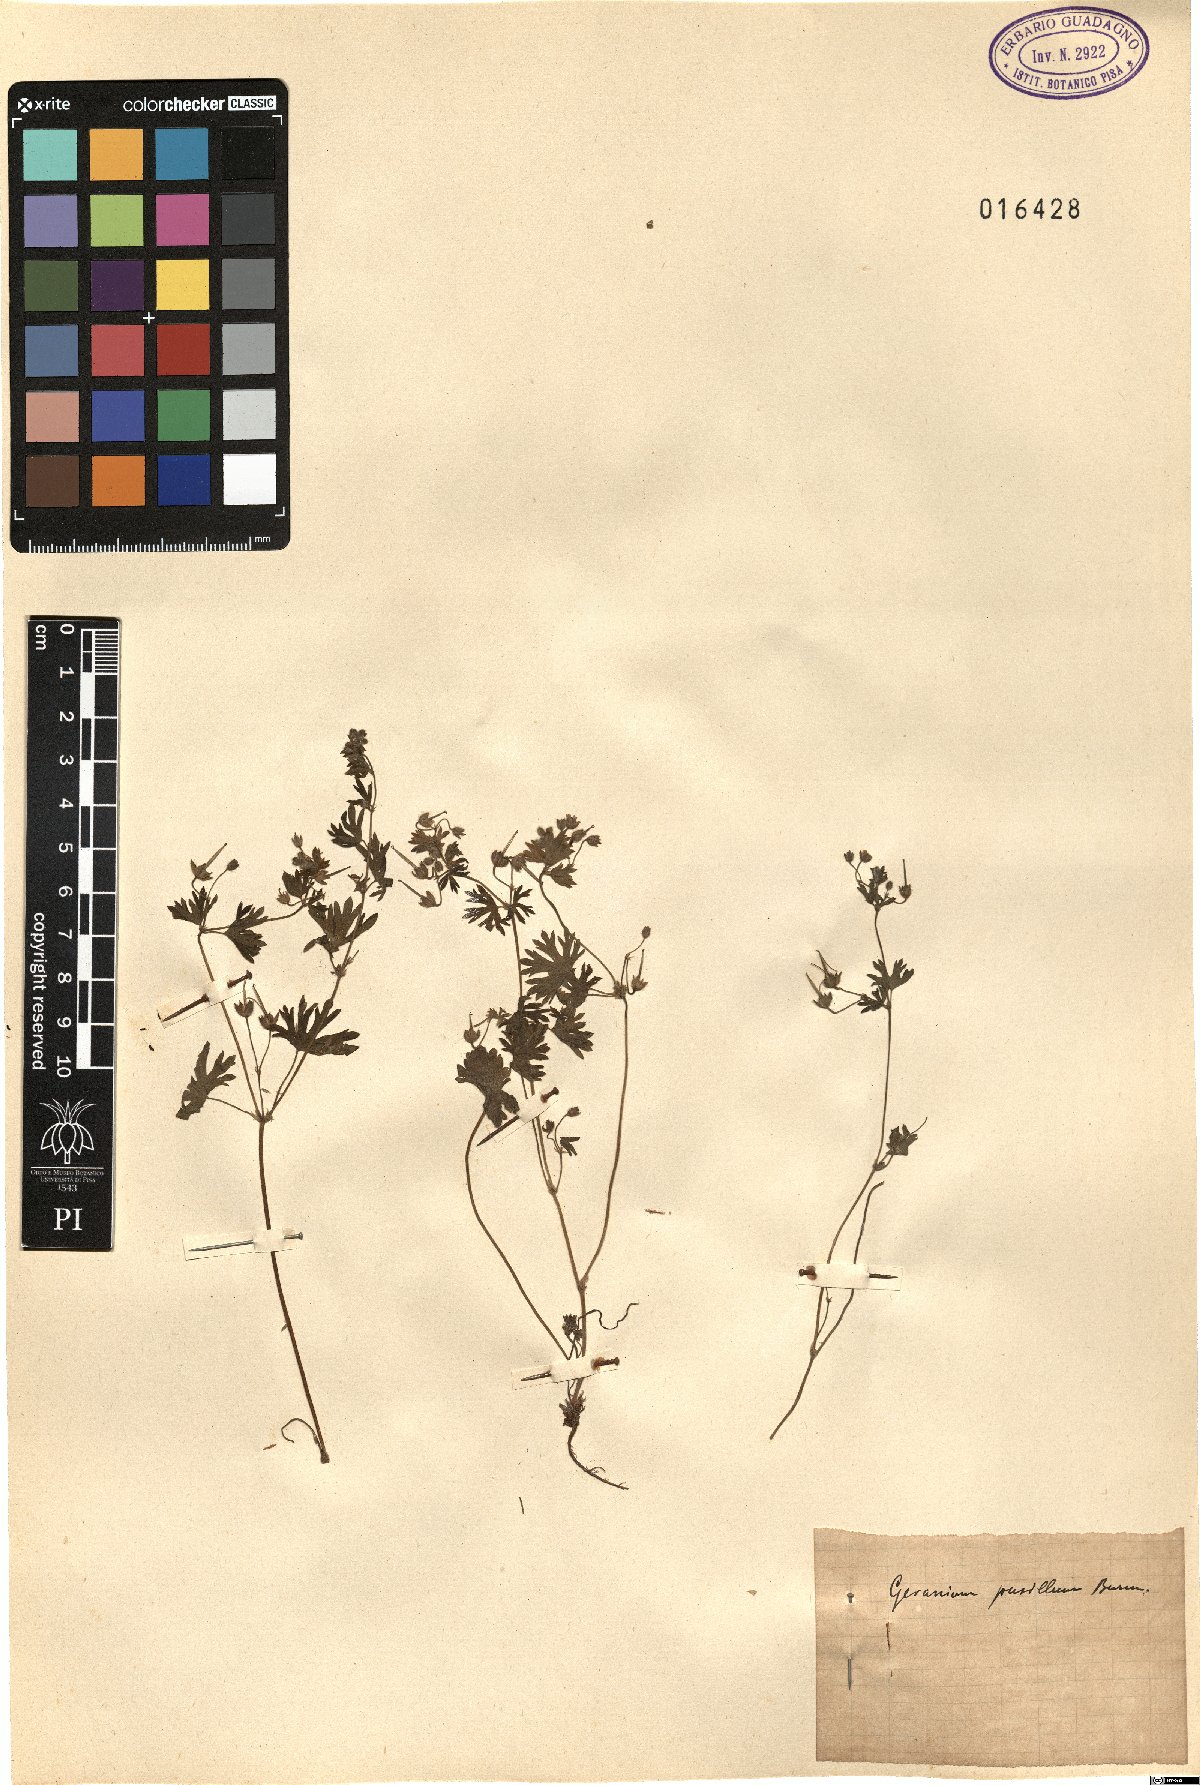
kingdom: Plantae
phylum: Tracheophyta
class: Magnoliopsida
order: Geraniales
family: Geraniaceae
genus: Geranium
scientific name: Geranium pusillum
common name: Small geranium
